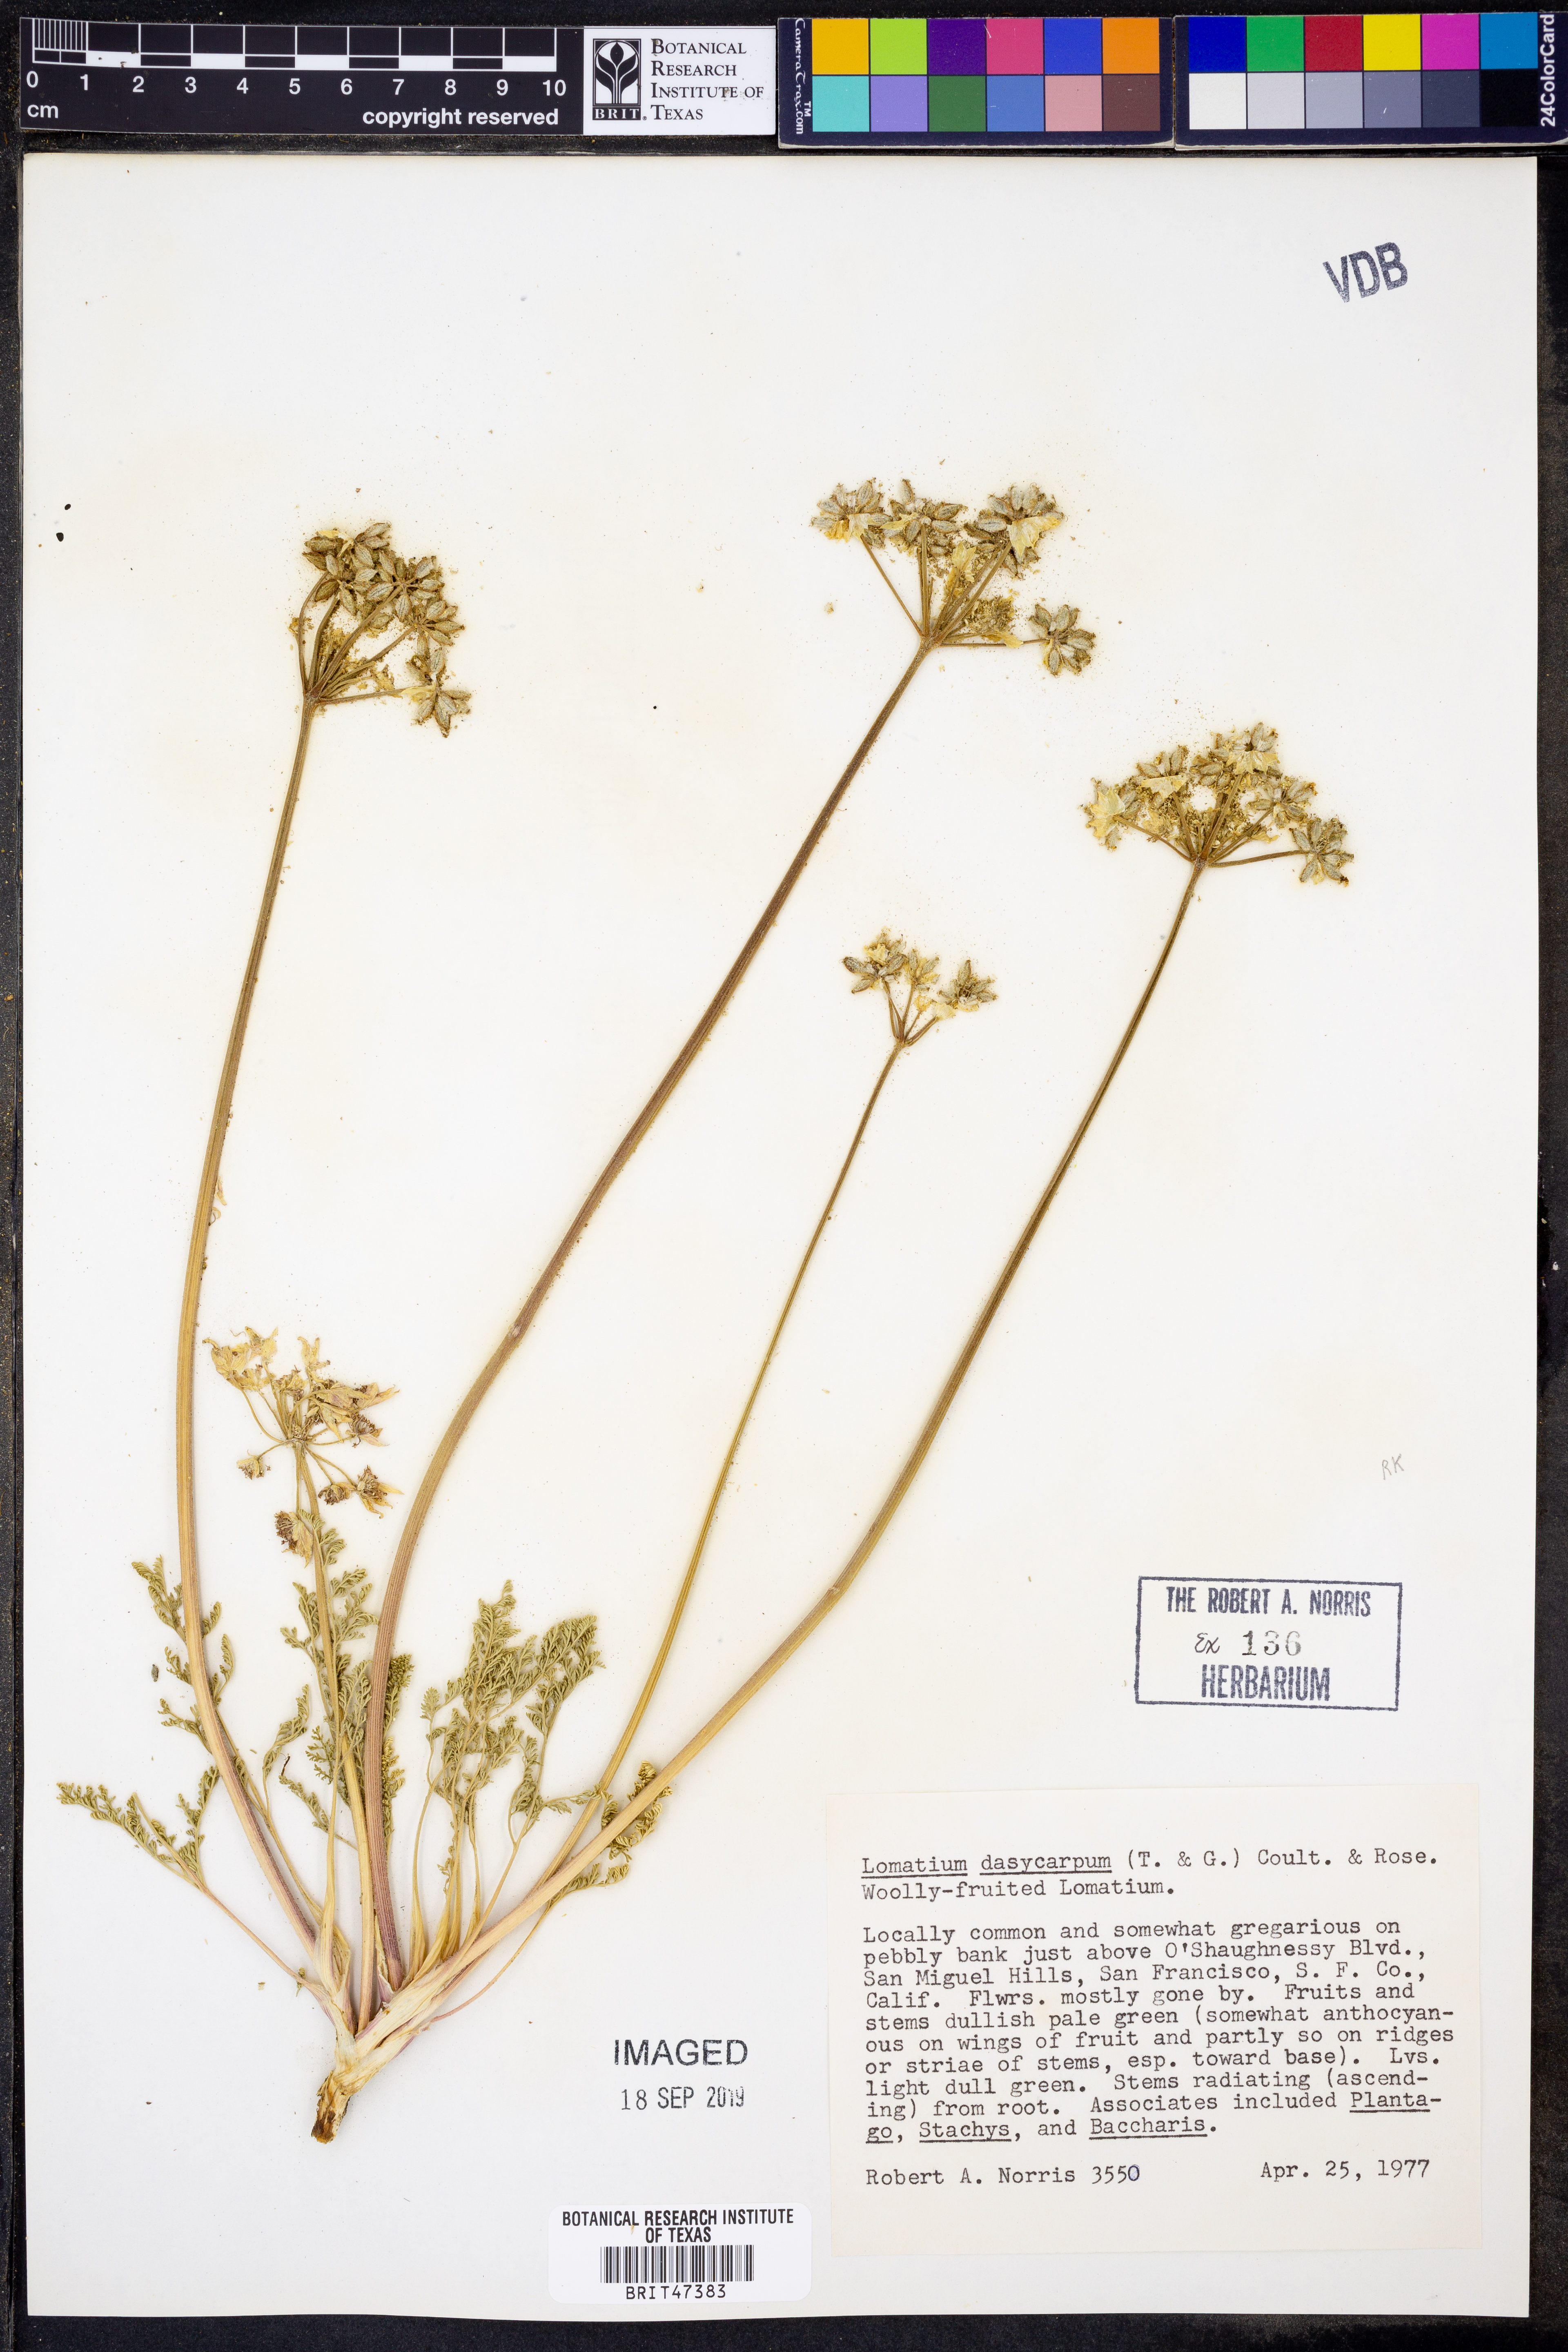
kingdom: Plantae
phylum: Tracheophyta
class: Magnoliopsida
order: Apiales
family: Apiaceae
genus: Lomatium
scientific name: Lomatium dasycarpum
